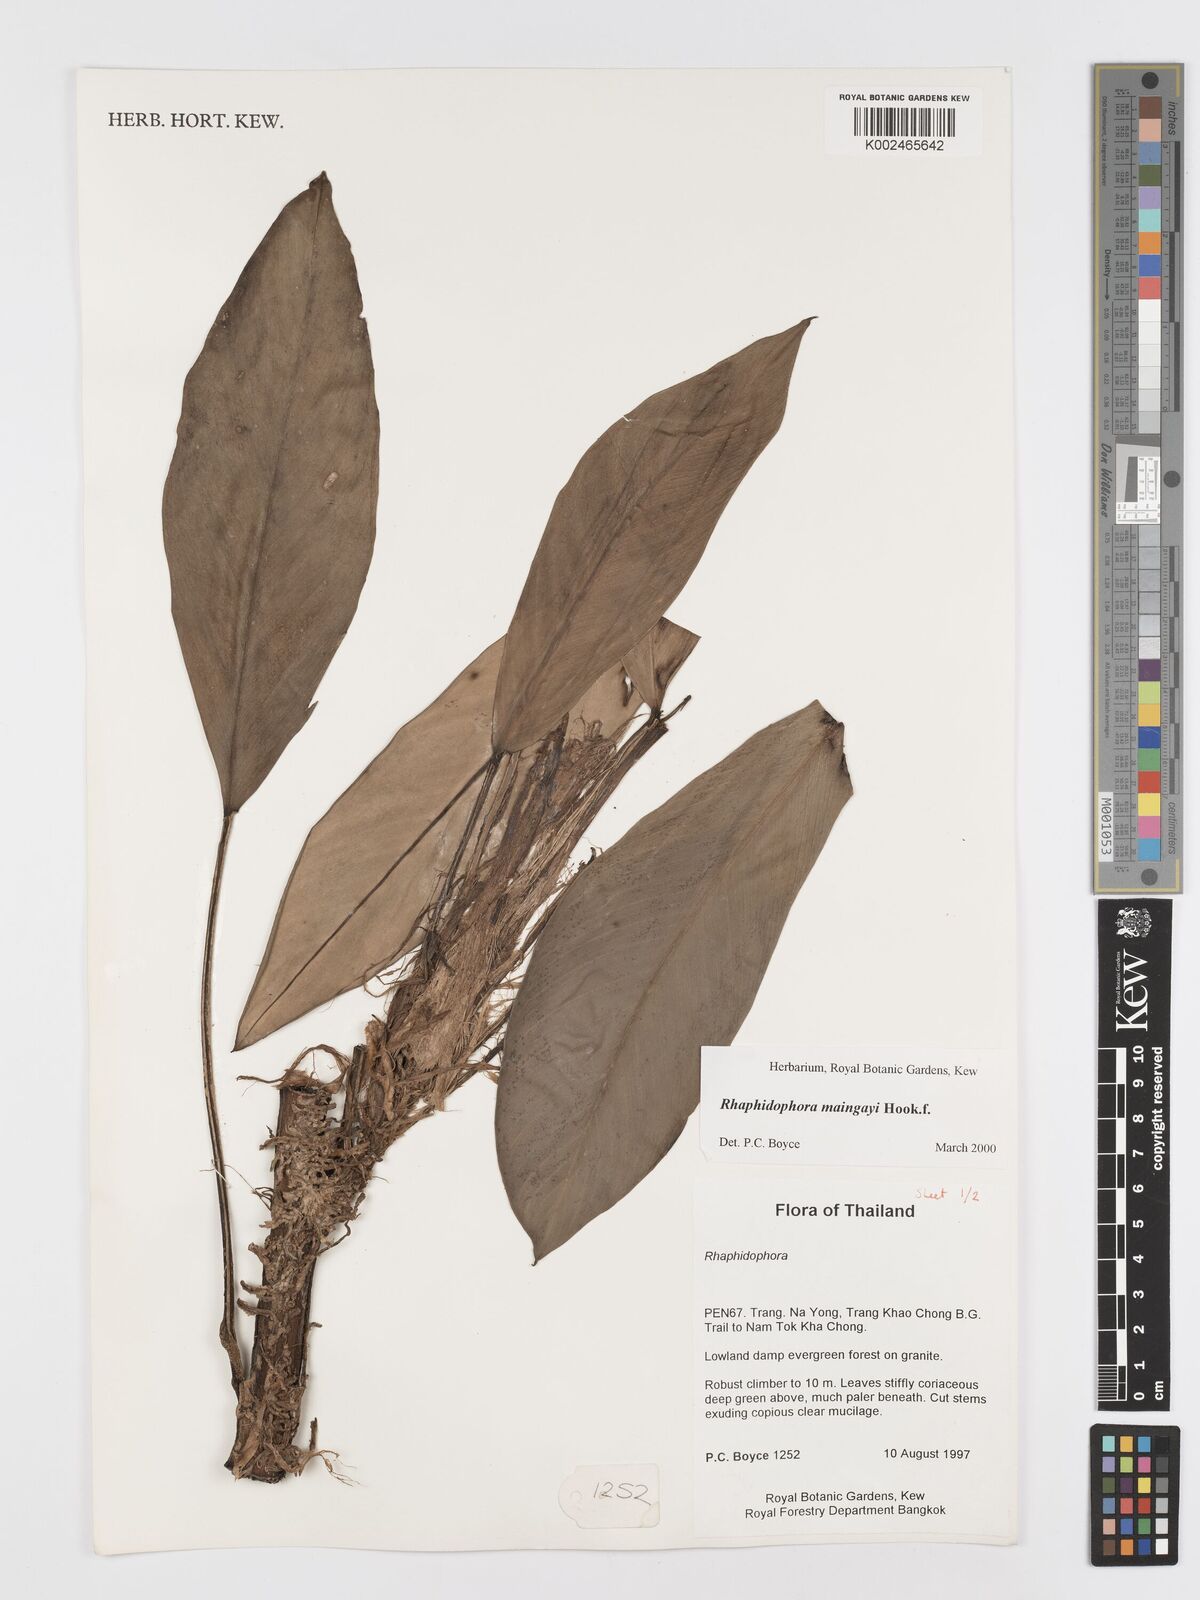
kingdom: Plantae
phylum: Tracheophyta
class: Liliopsida
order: Alismatales
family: Araceae
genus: Rhaphidophora
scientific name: Rhaphidophora maingayi
